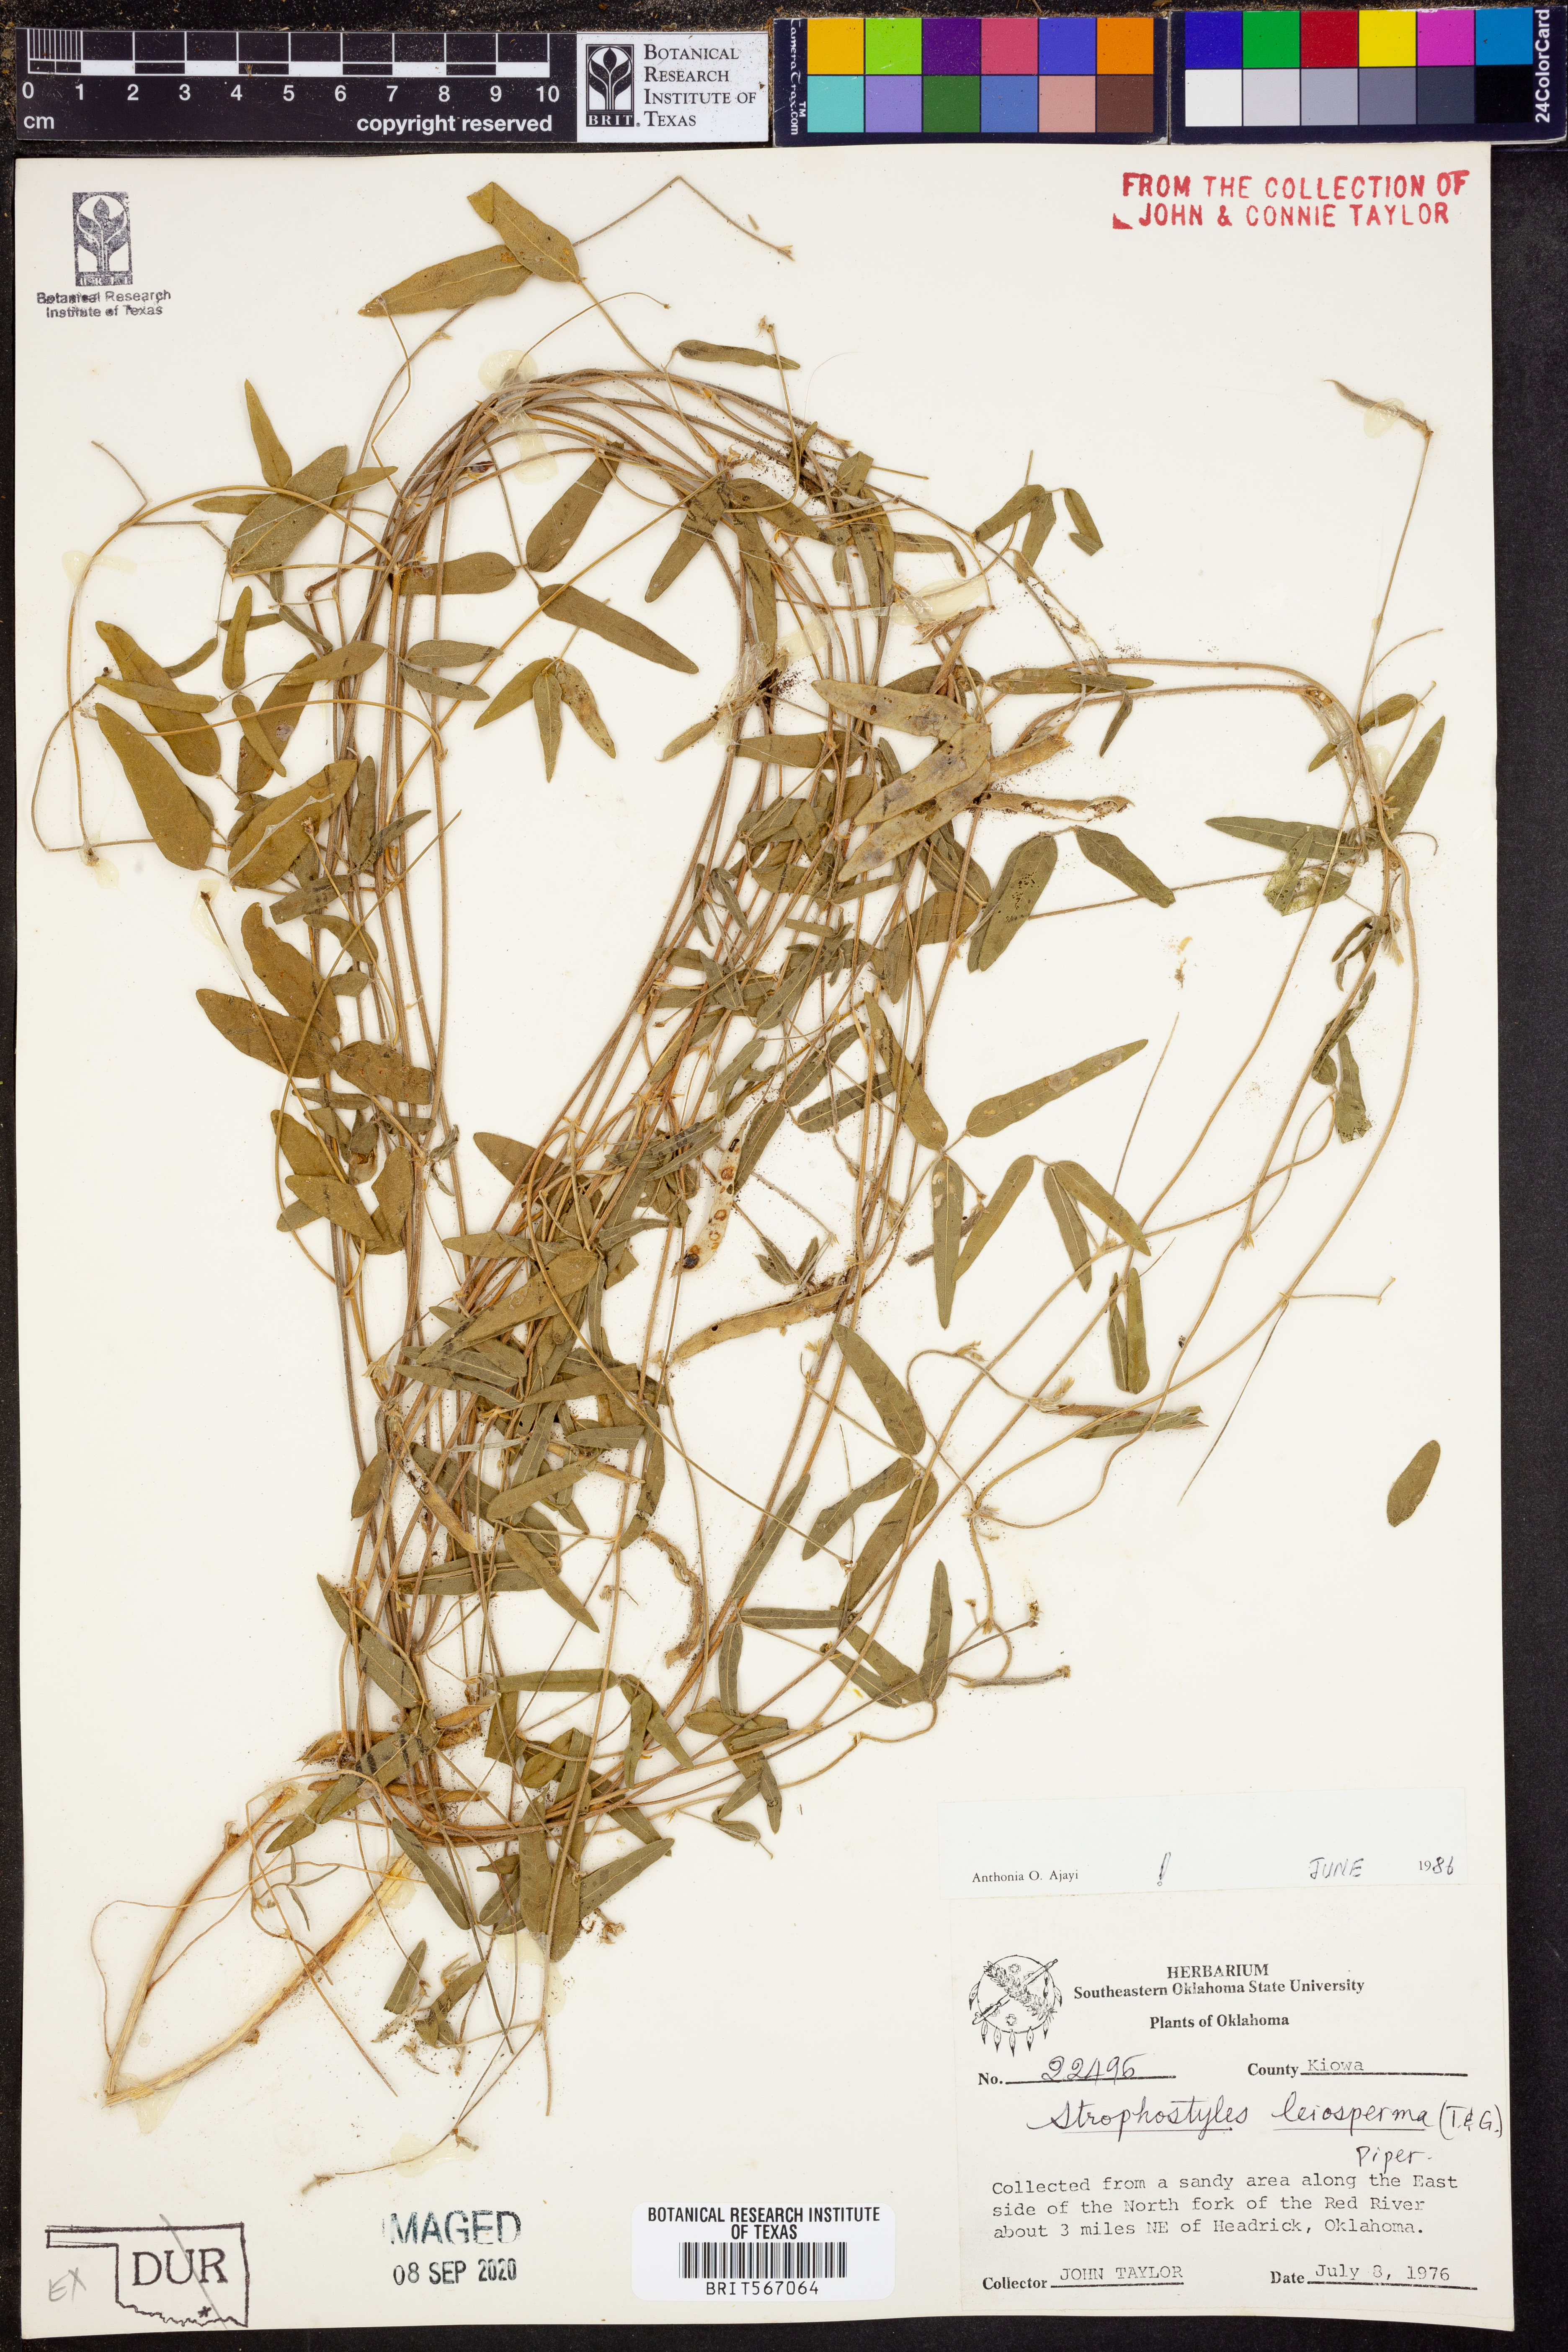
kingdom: Plantae
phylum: Tracheophyta
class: Magnoliopsida
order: Fabales
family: Fabaceae
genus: Strophostyles
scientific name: Strophostyles leiosperma
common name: Smooth-seed wild bean
